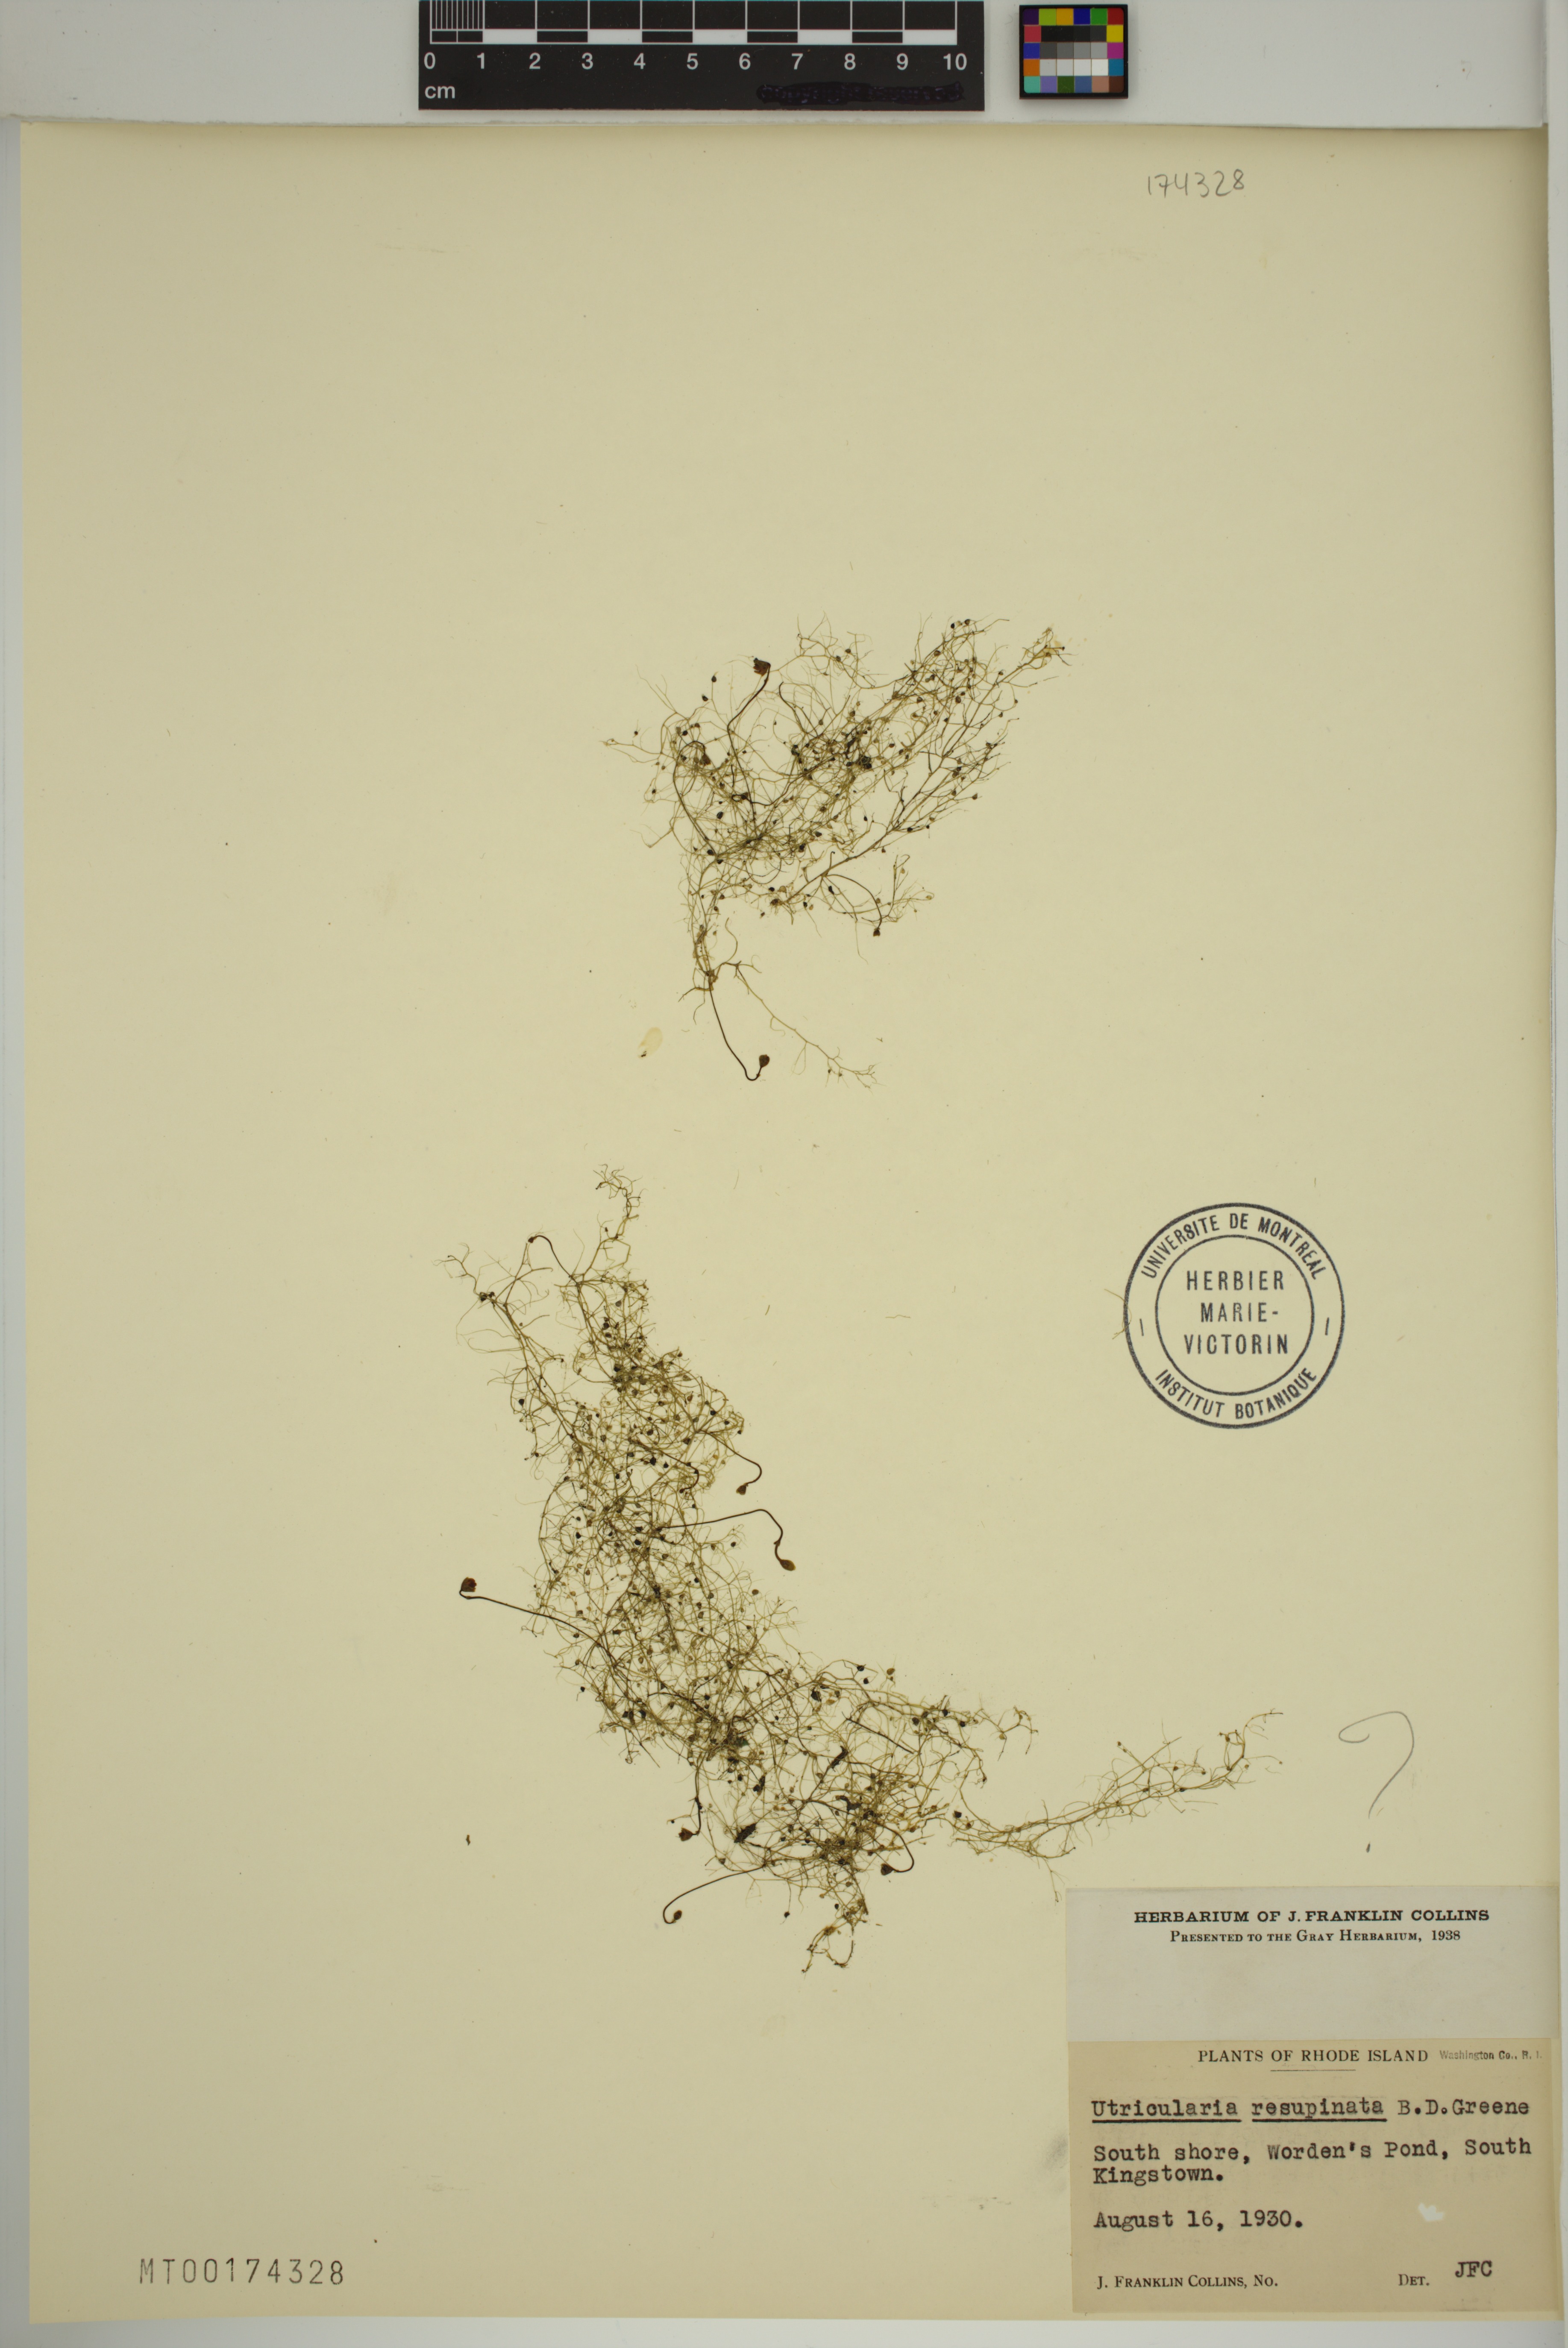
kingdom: Plantae
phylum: Tracheophyta
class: Magnoliopsida
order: Lamiales
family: Lentibulariaceae
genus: Utricularia
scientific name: Utricularia resupinata
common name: Northeastern bladderwort
